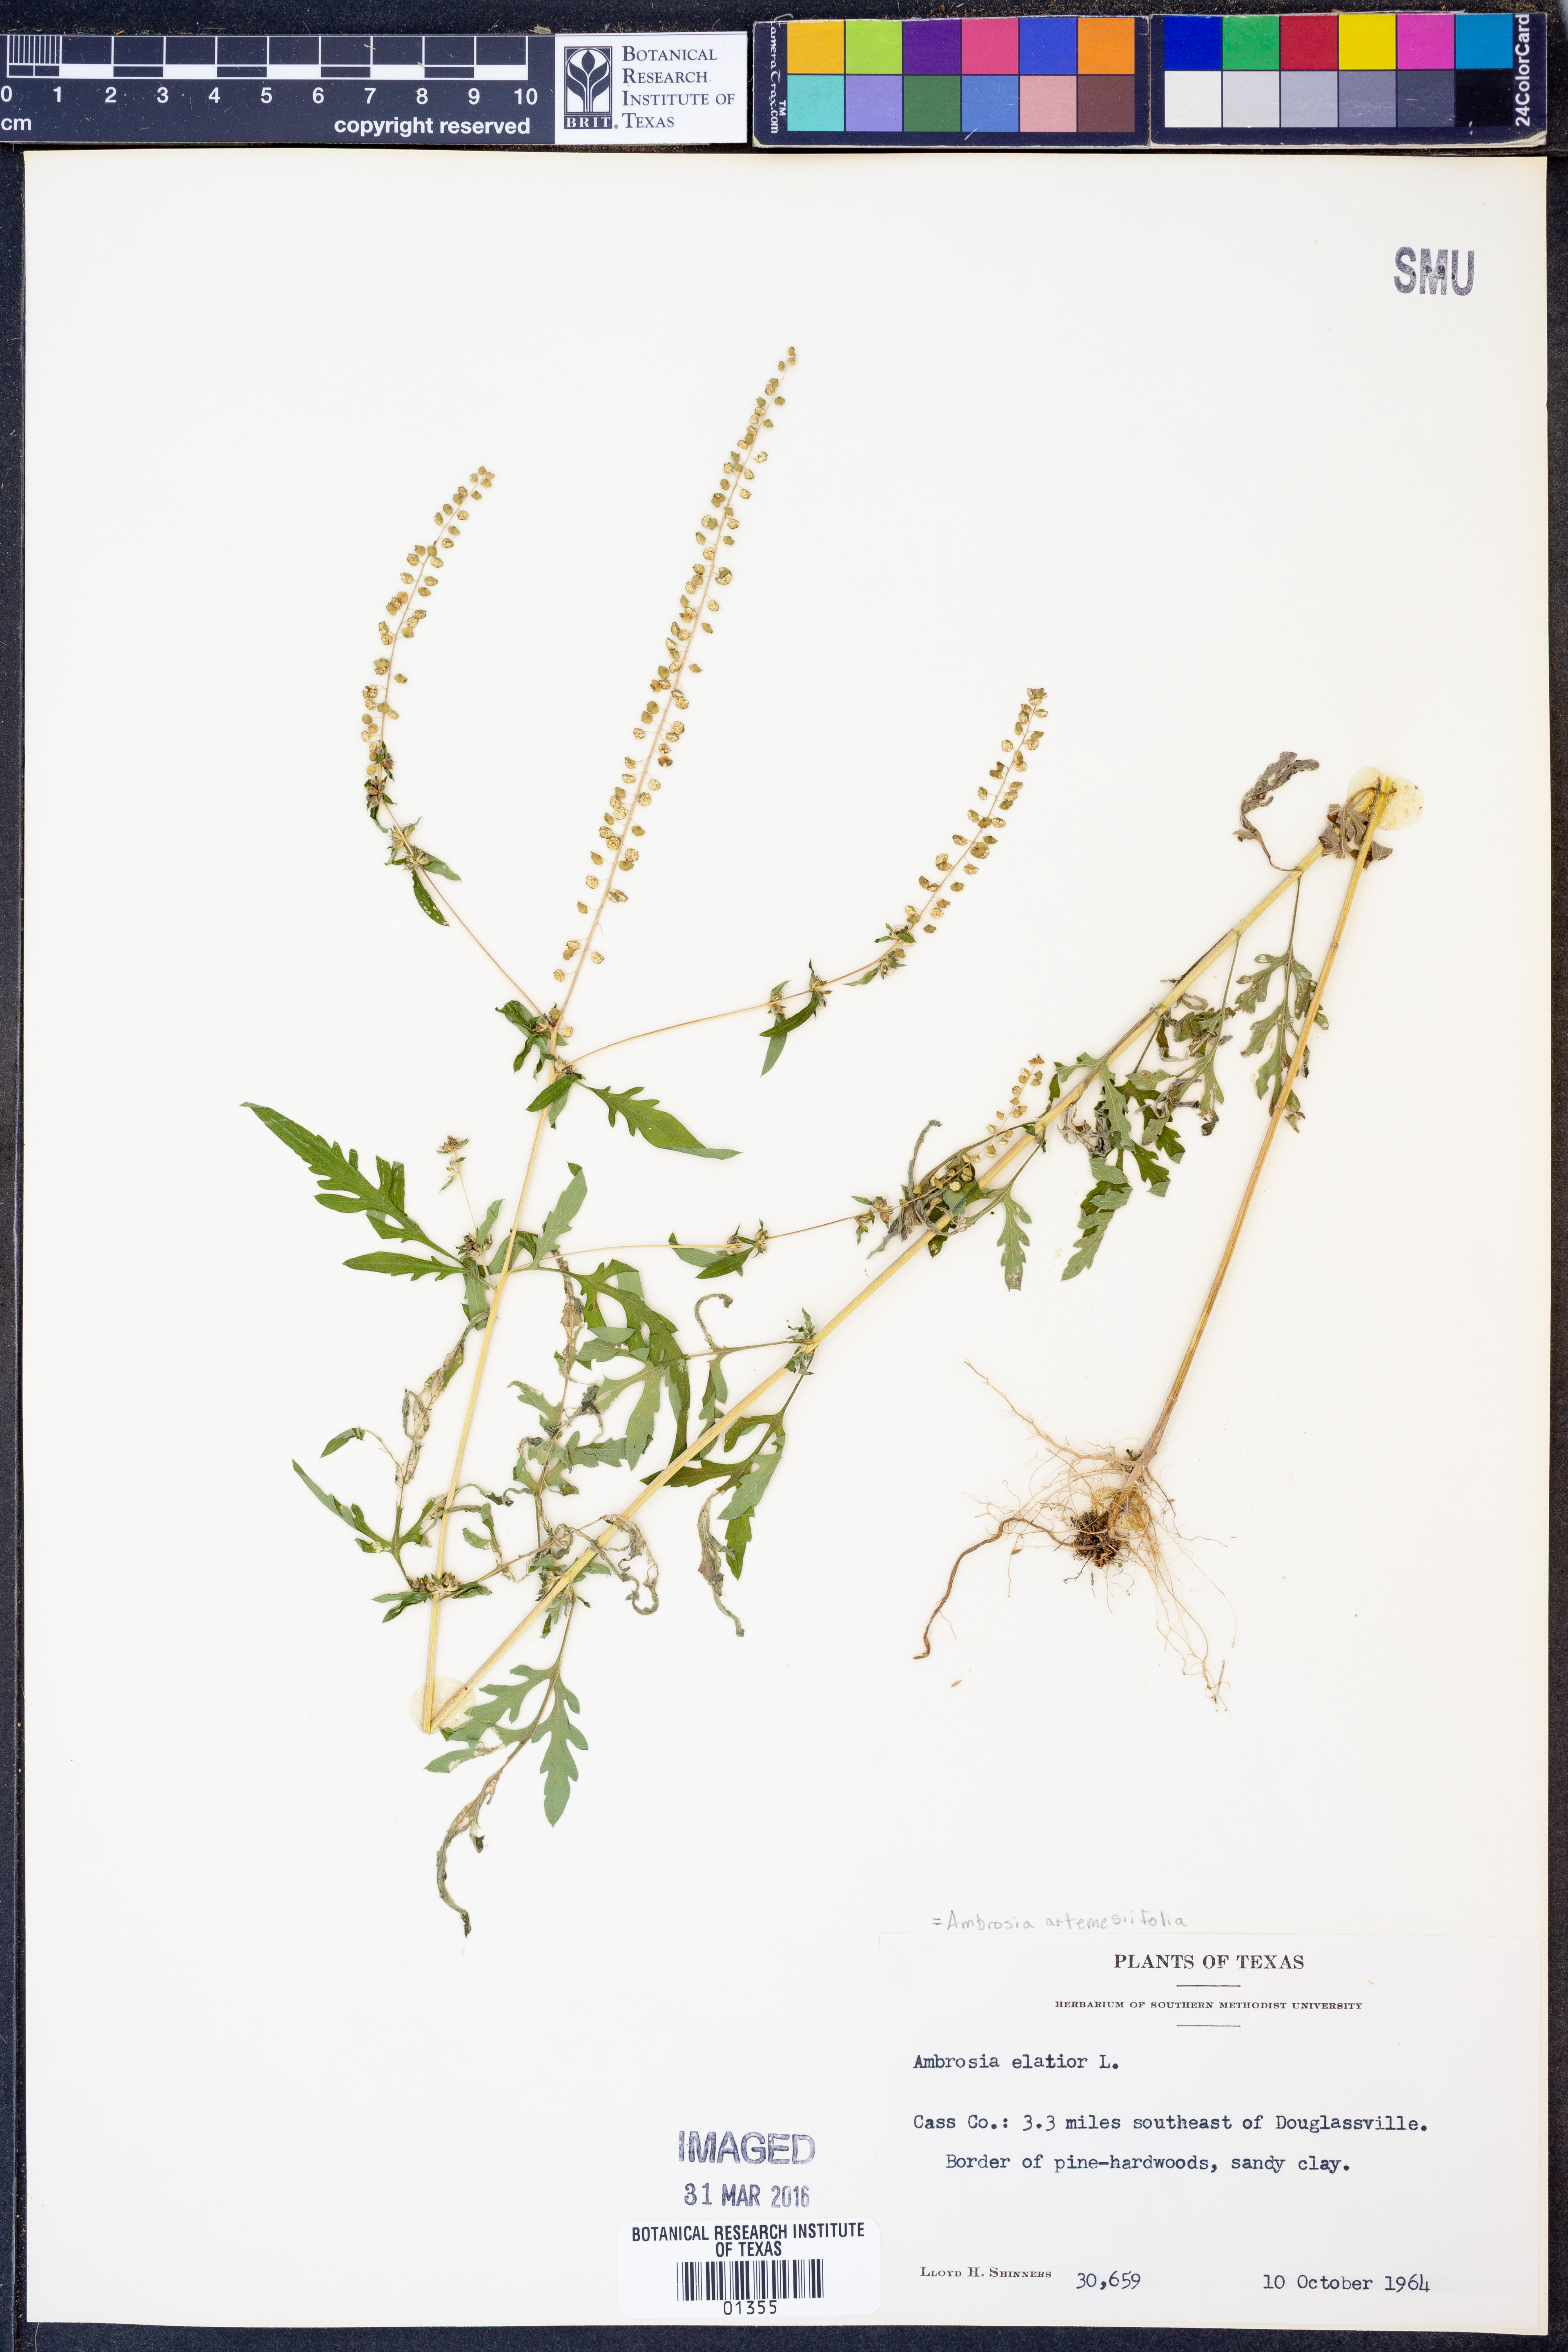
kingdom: Plantae
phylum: Tracheophyta
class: Magnoliopsida
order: Asterales
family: Asteraceae
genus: Ambrosia
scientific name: Ambrosia artemisiifolia
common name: Annual ragweed
